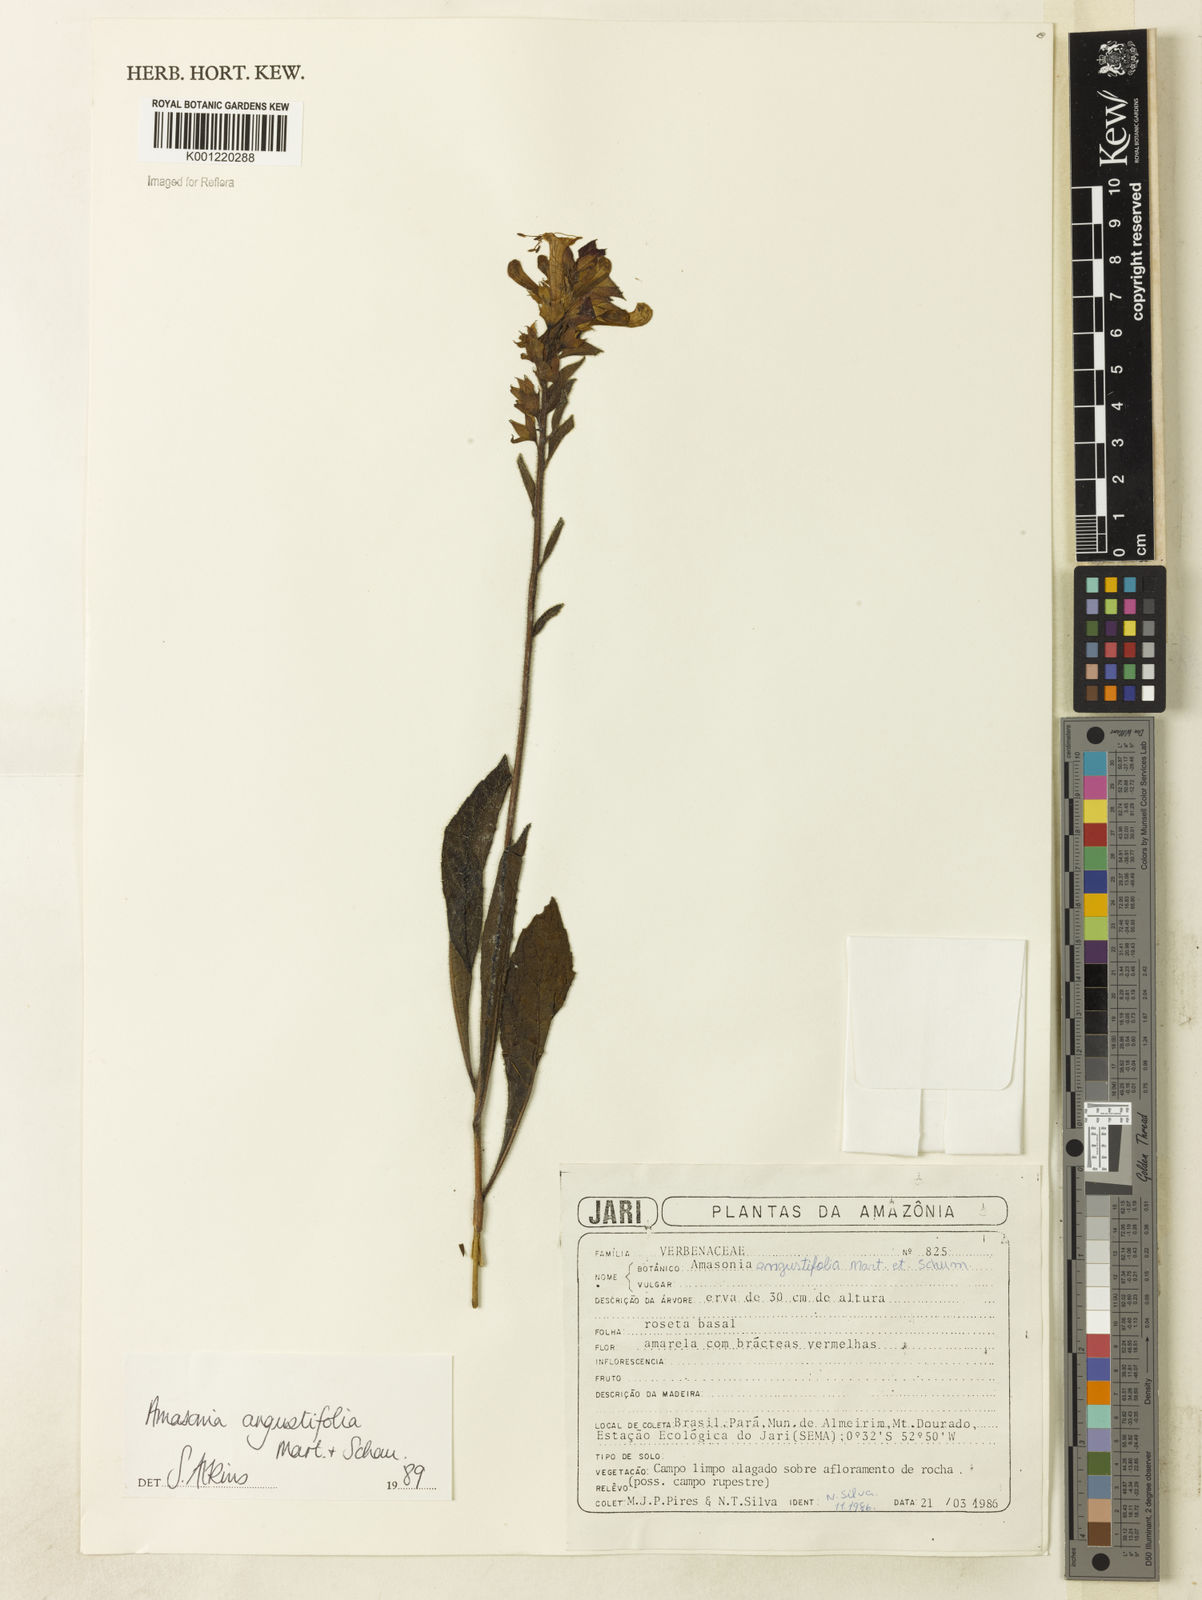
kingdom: Plantae
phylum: Tracheophyta
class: Magnoliopsida
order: Lamiales
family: Lamiaceae
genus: Amasonia
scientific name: Amasonia angustifolia
